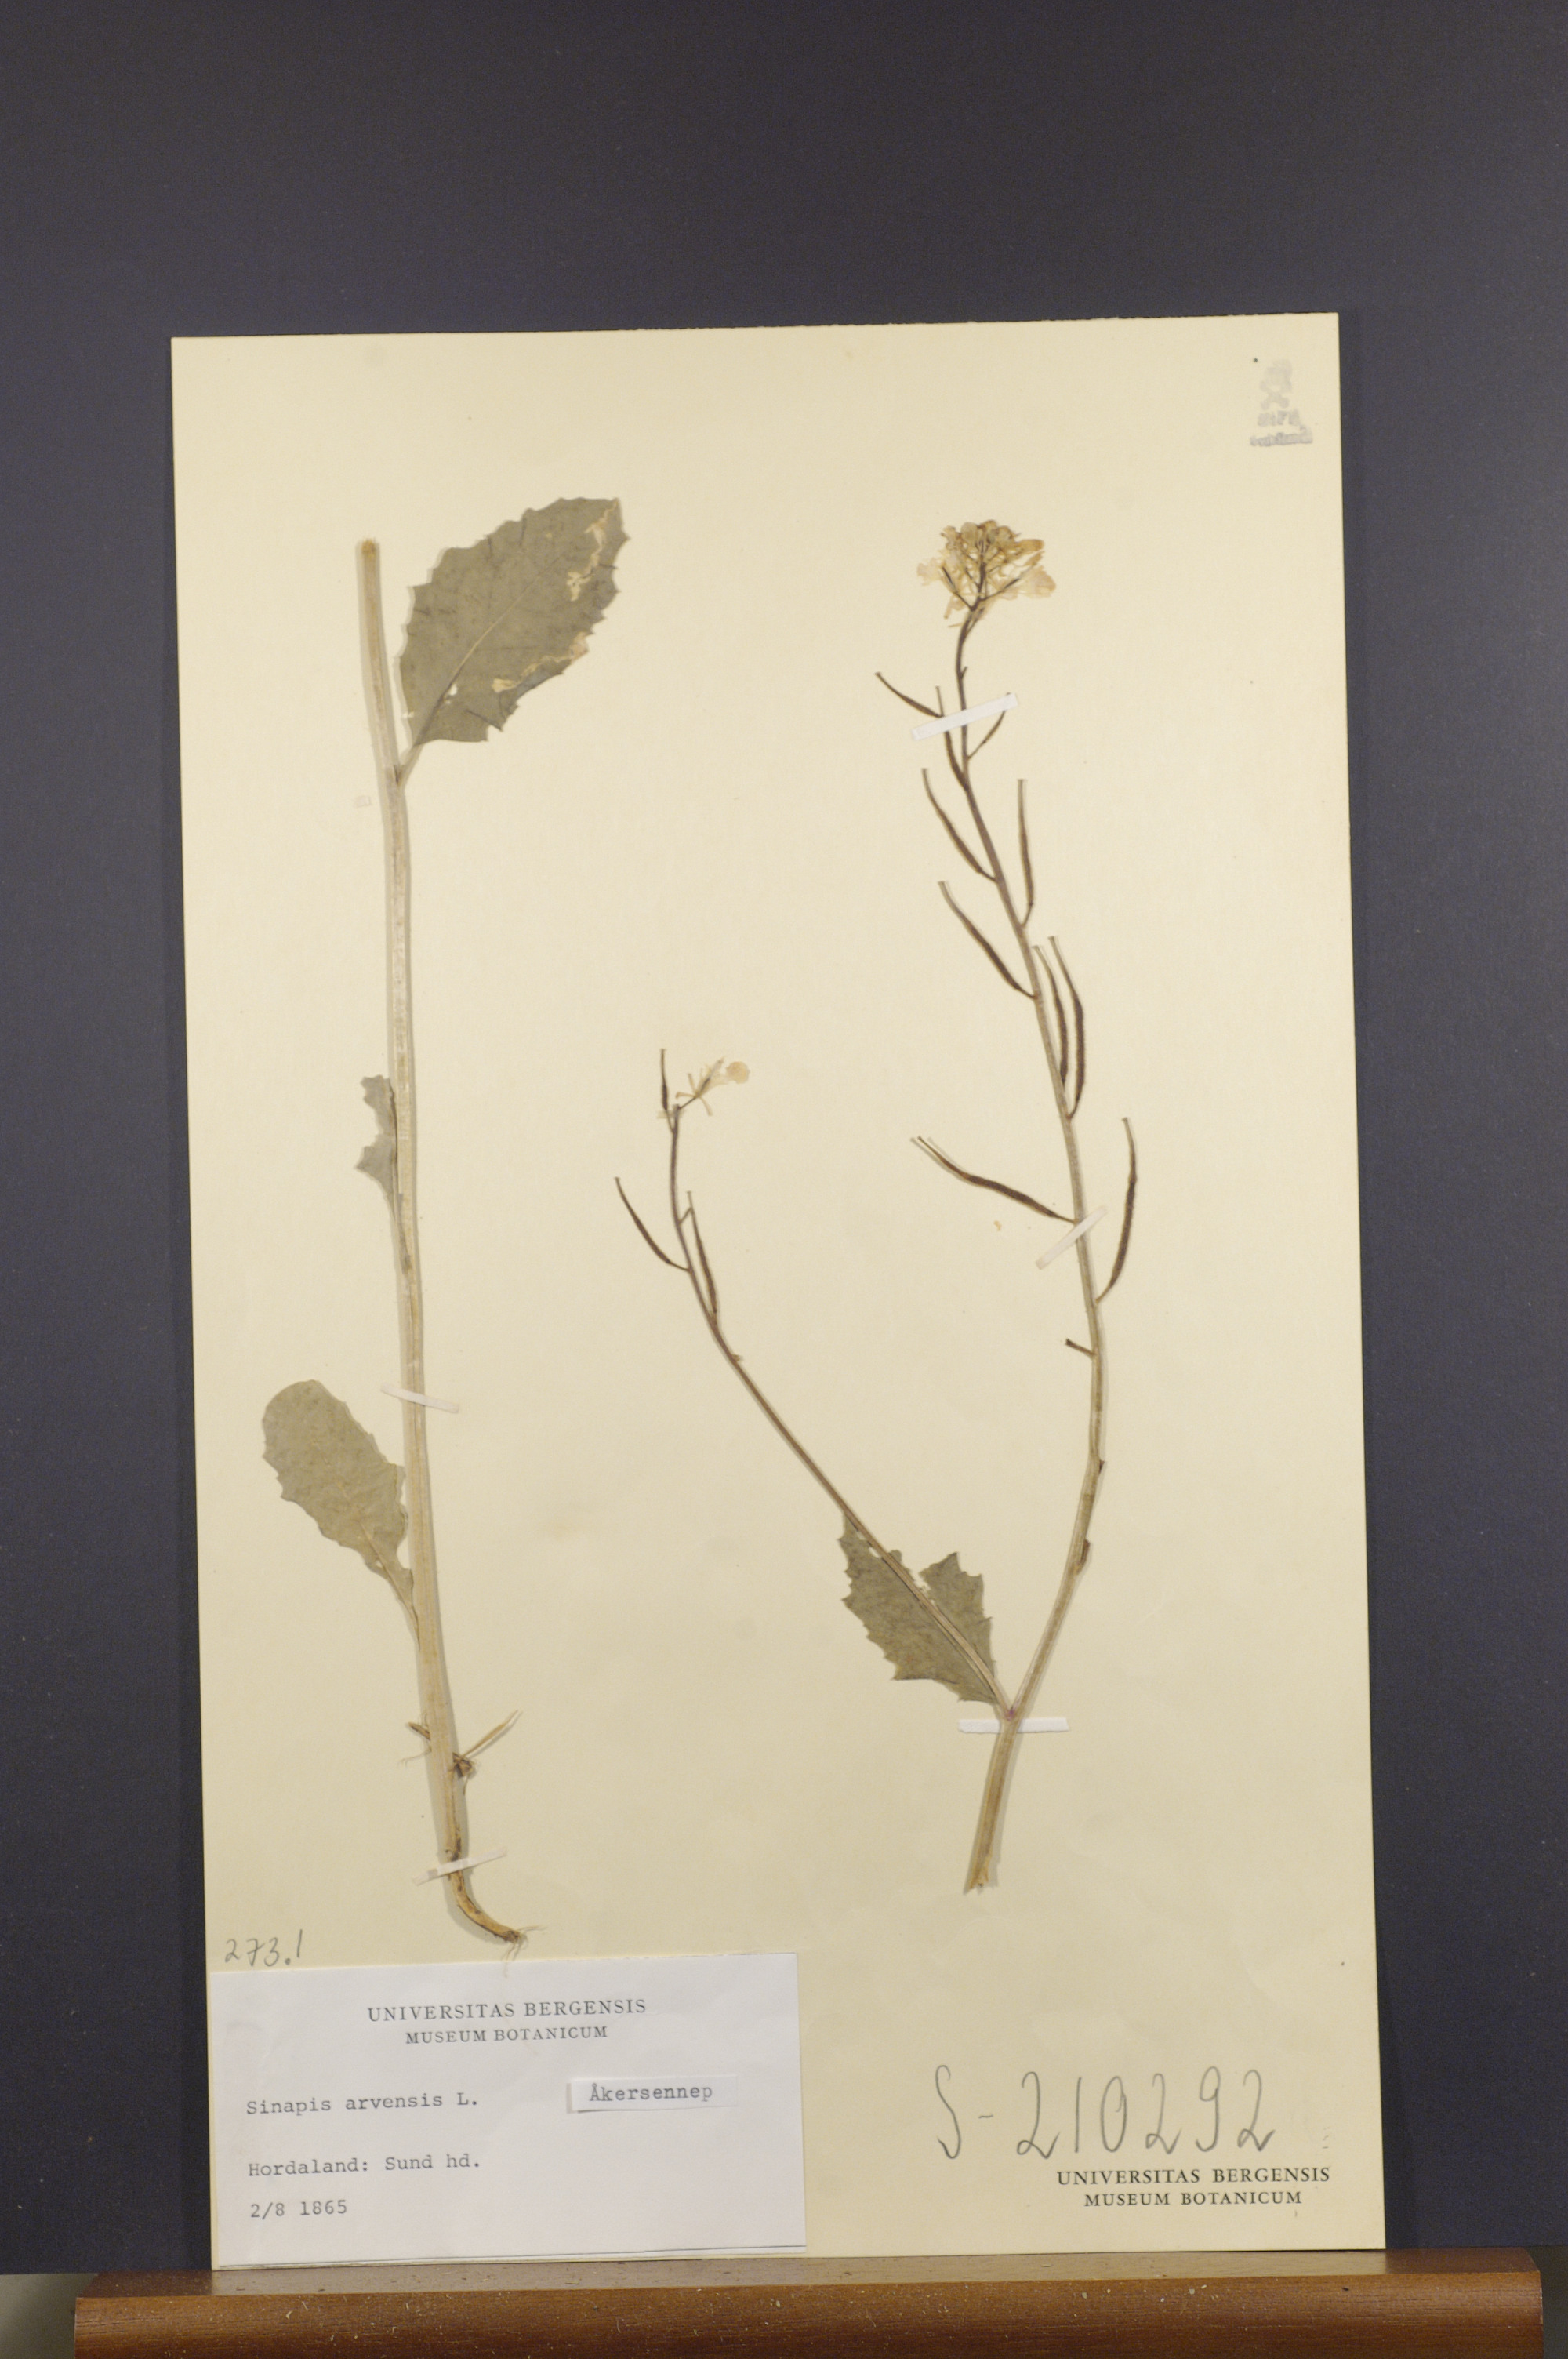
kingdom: Plantae
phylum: Tracheophyta
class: Magnoliopsida
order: Brassicales
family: Brassicaceae
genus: Sinapis
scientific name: Sinapis arvensis
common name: Charlock
